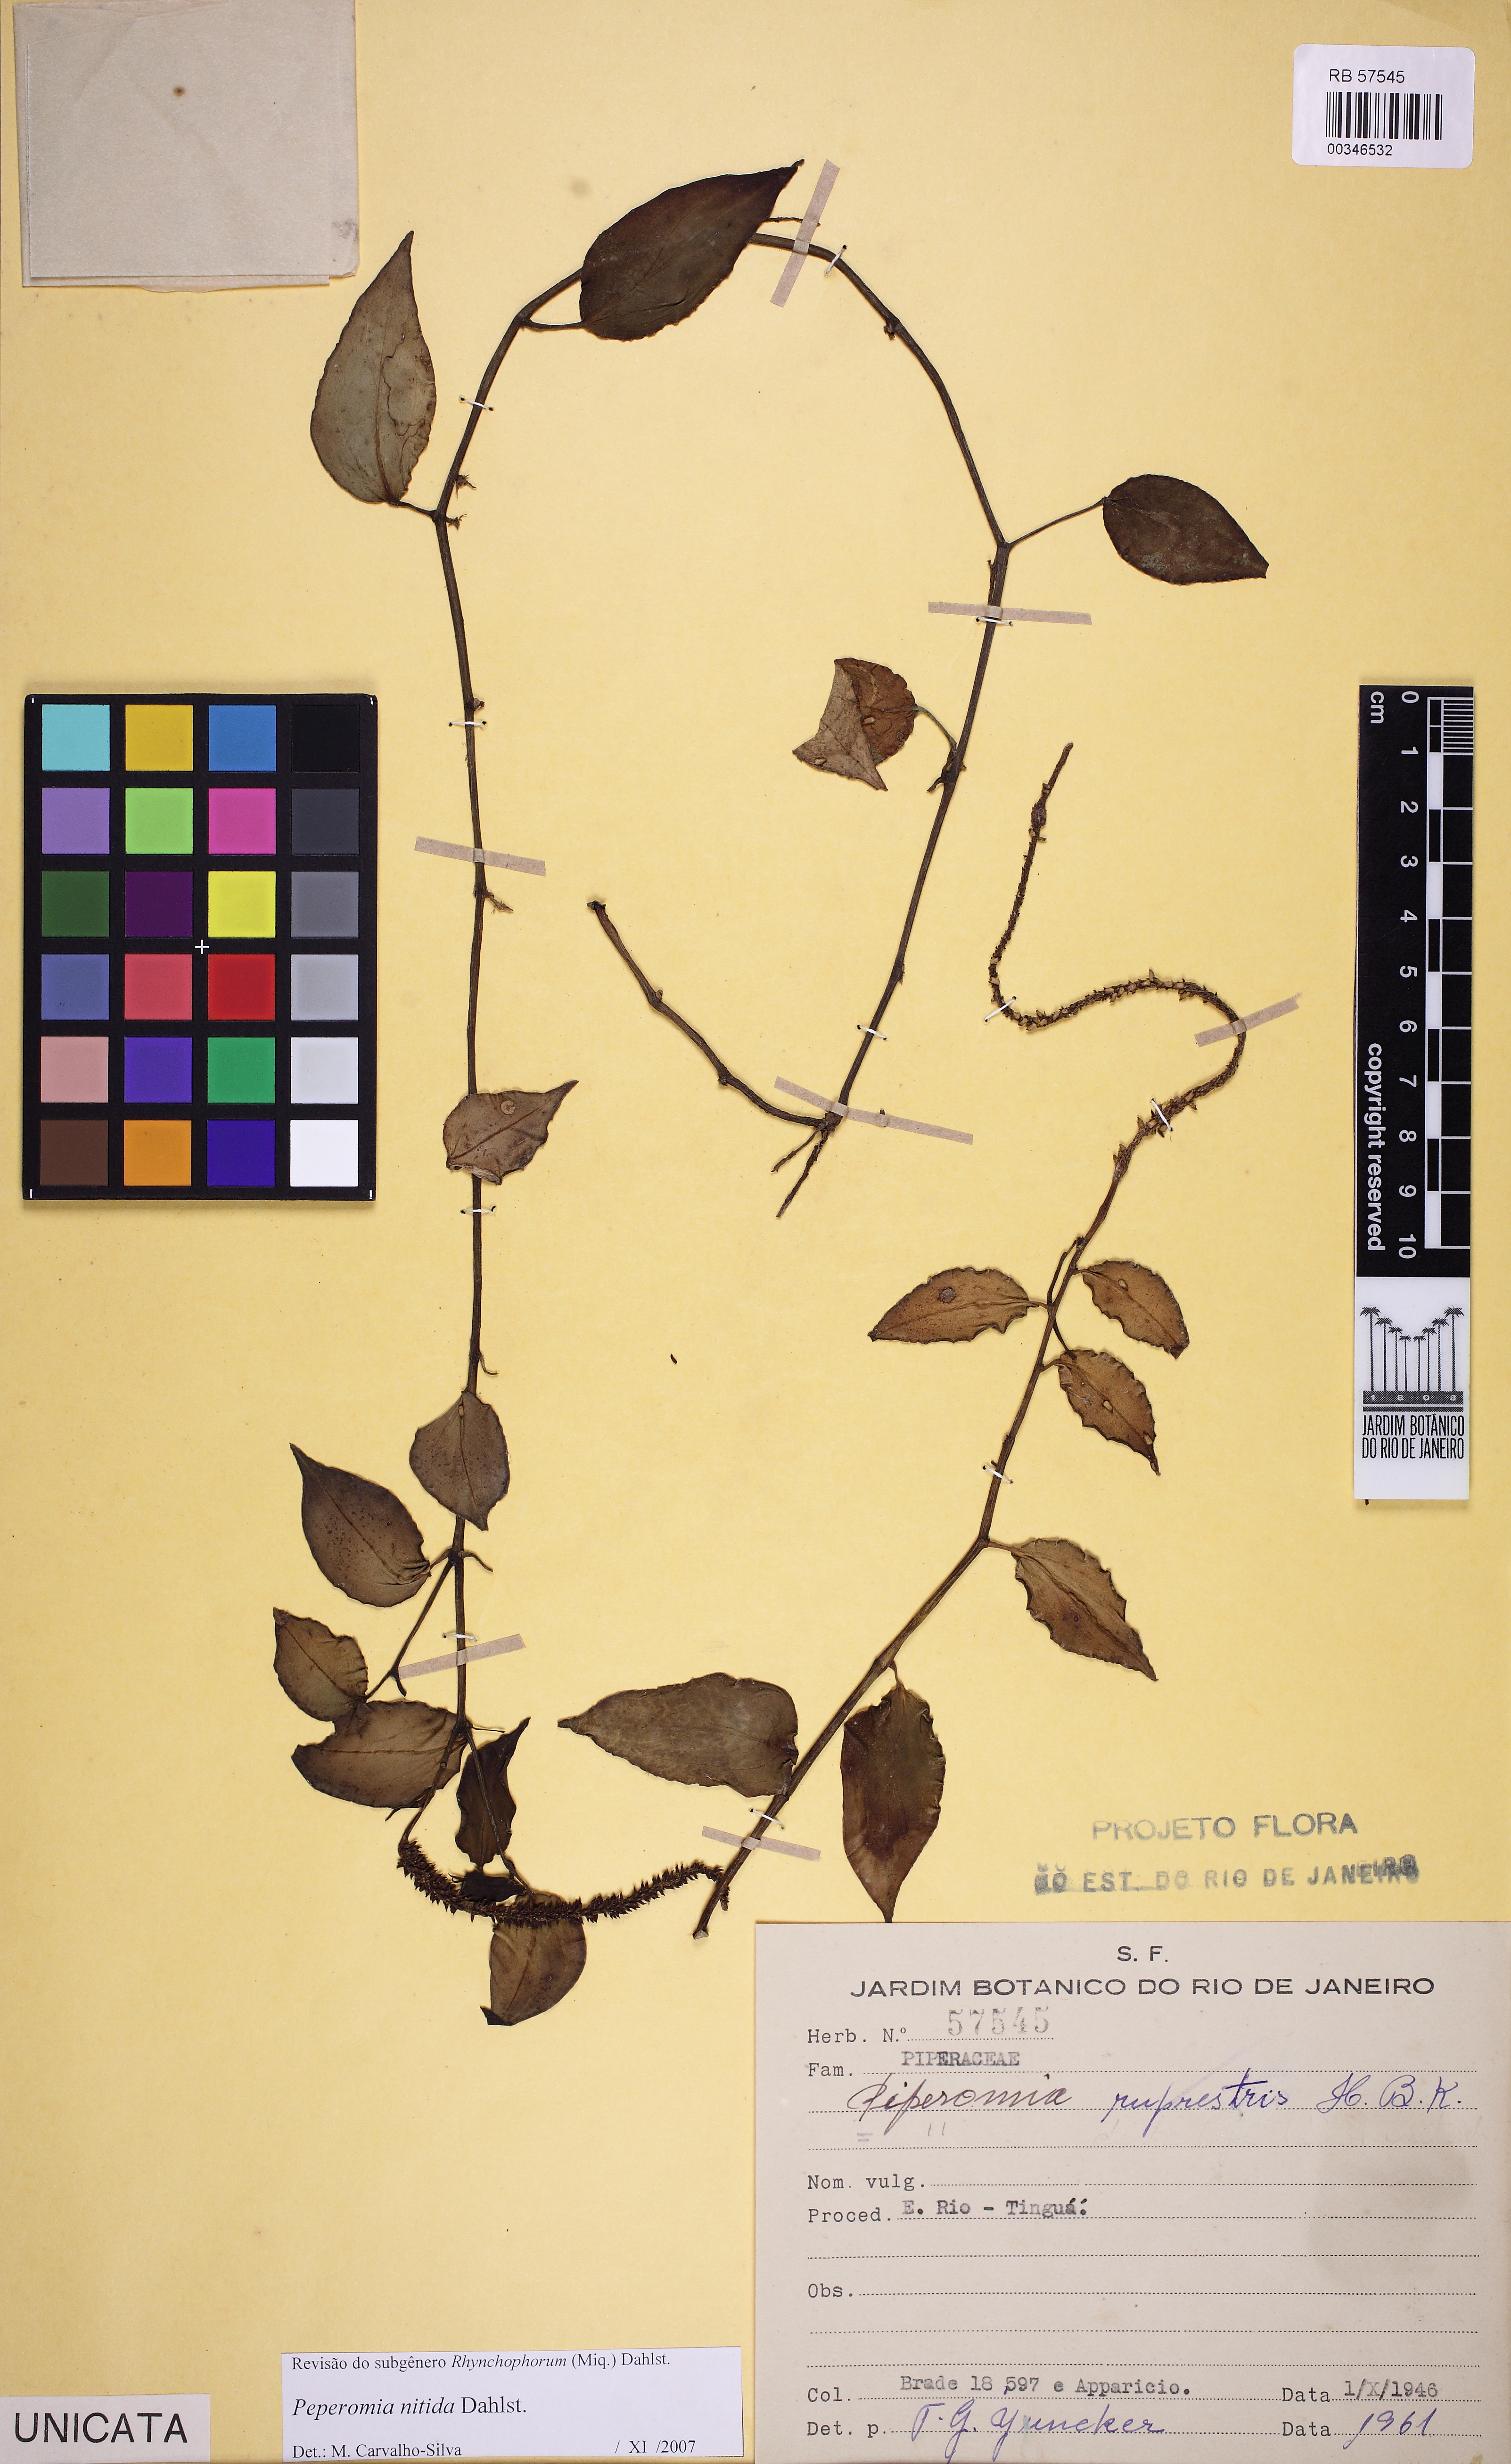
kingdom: Plantae
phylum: Tracheophyta
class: Magnoliopsida
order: Piperales
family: Piperaceae
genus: Peperomia
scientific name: Peperomia nitida
